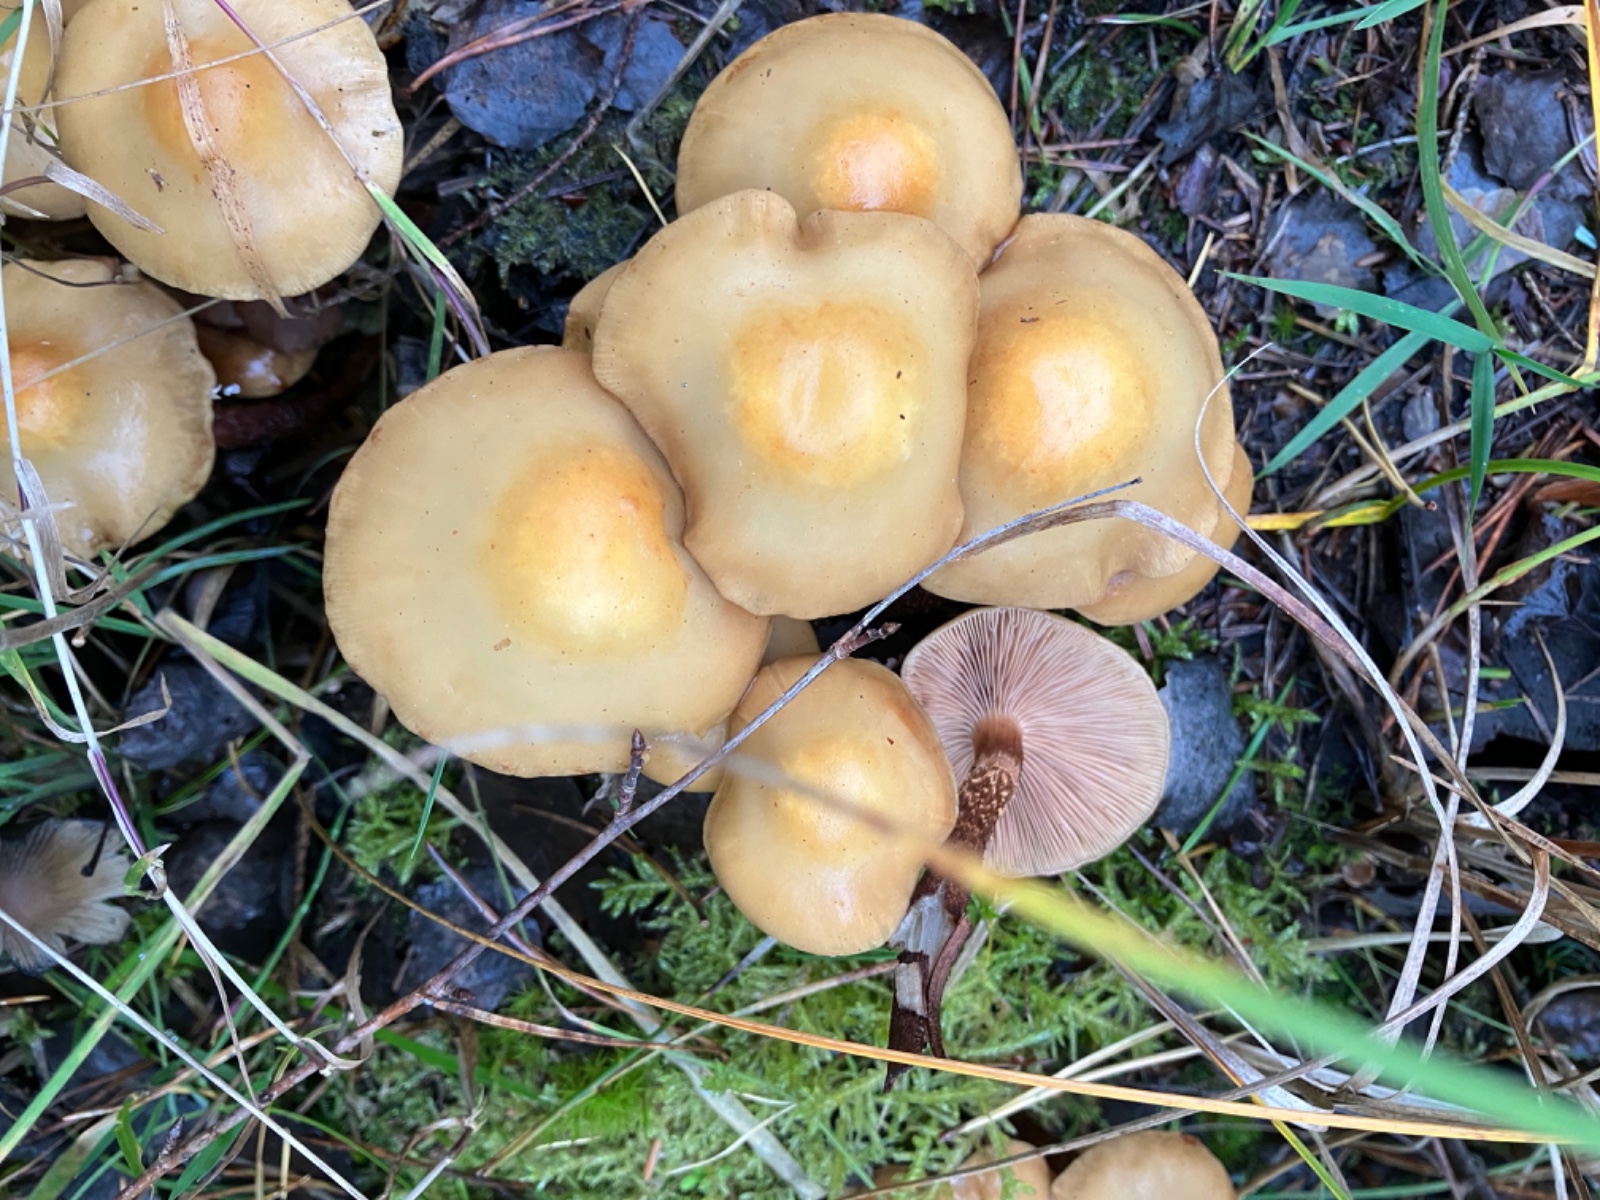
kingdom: Fungi
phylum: Basidiomycota
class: Agaricomycetes
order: Agaricales
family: Strophariaceae
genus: Kuehneromyces
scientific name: Kuehneromyces mutabilis
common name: foranderlig skælhat
